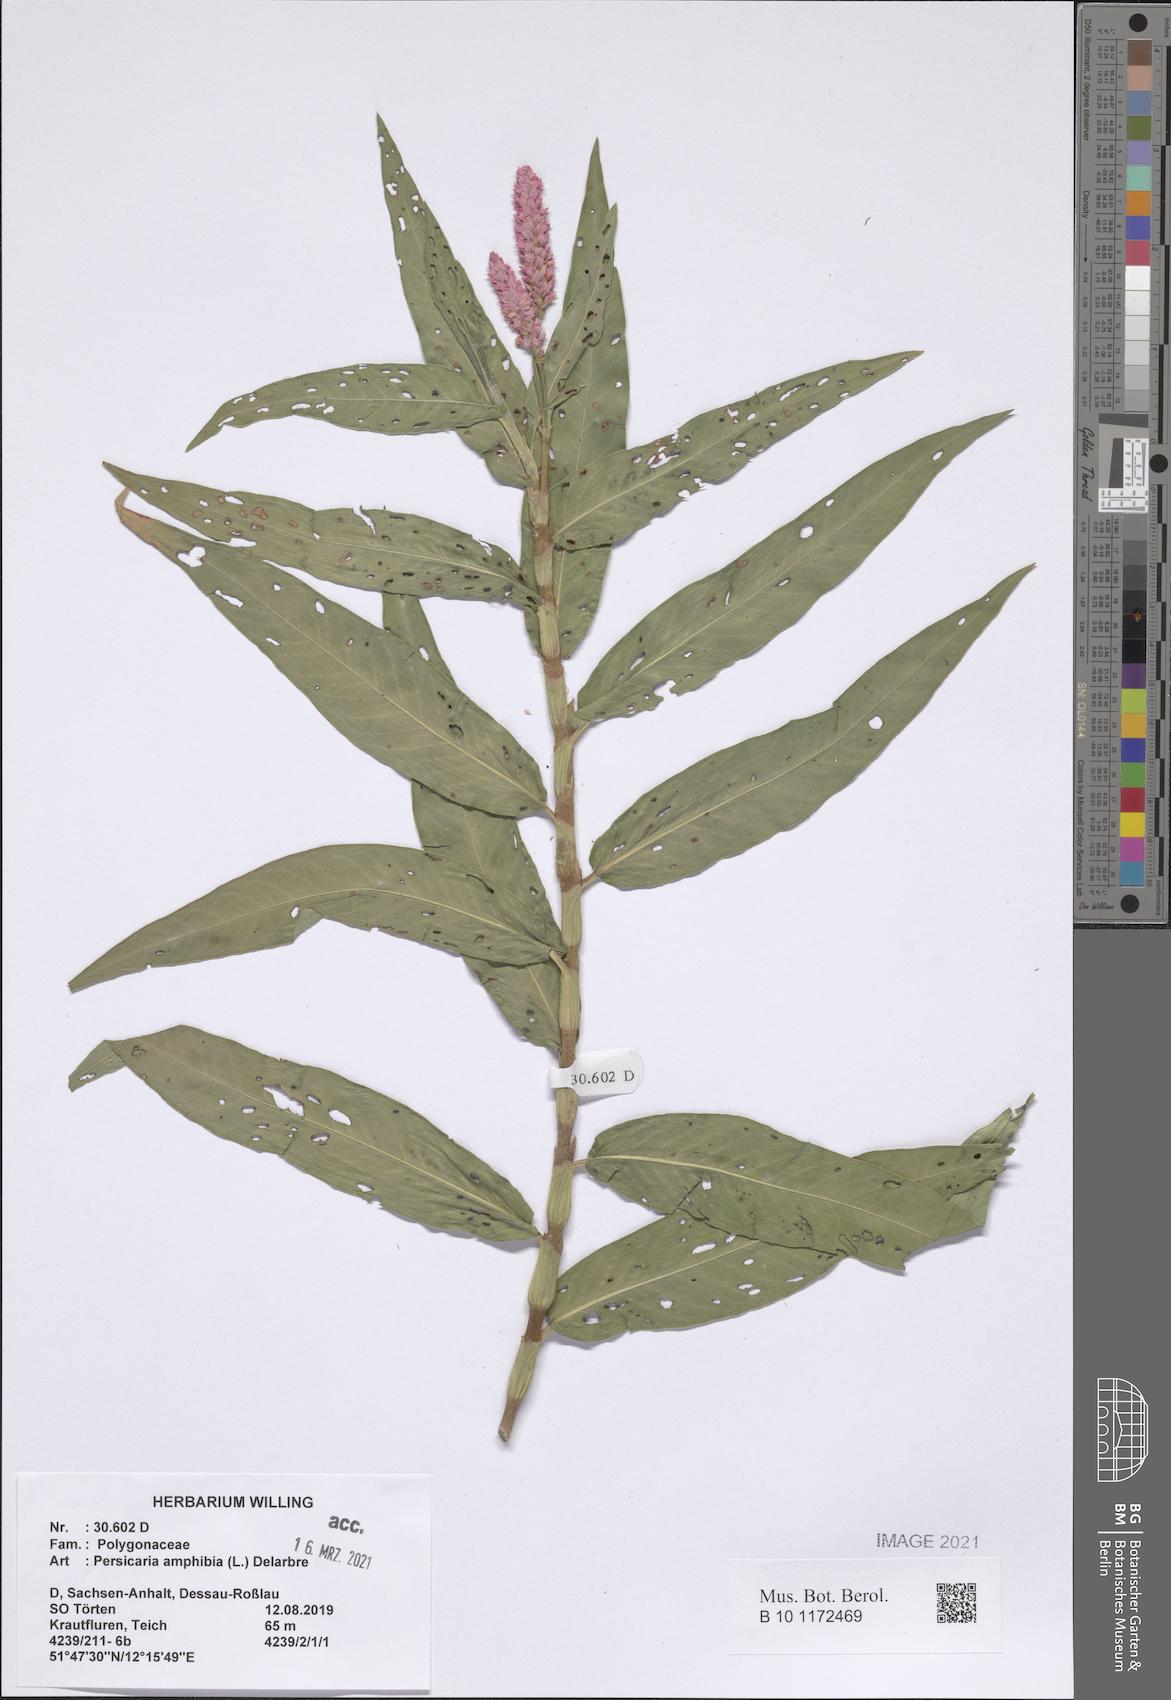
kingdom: Plantae
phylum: Tracheophyta
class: Magnoliopsida
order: Caryophyllales
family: Polygonaceae
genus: Persicaria
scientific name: Persicaria amphibia
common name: Amphibious bistort
